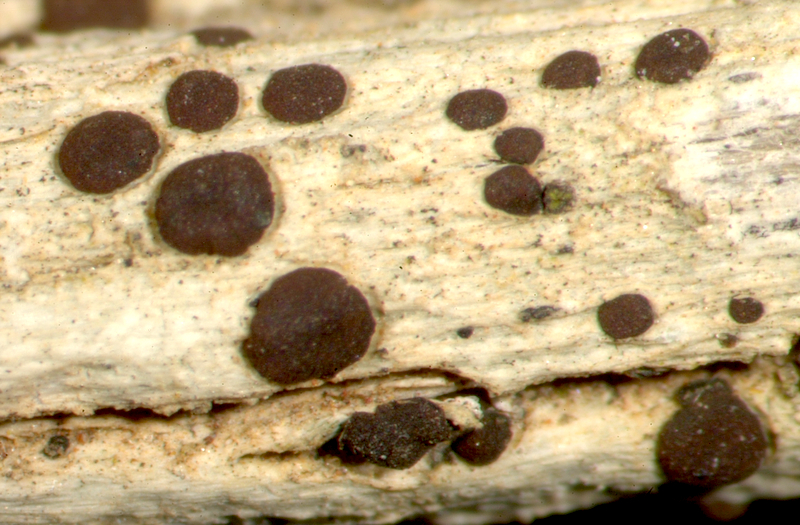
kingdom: Fungi
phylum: Ascomycota
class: Lecanoromycetes
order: Lecanorales
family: Ramalinaceae
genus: Bacidia
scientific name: Bacidia
